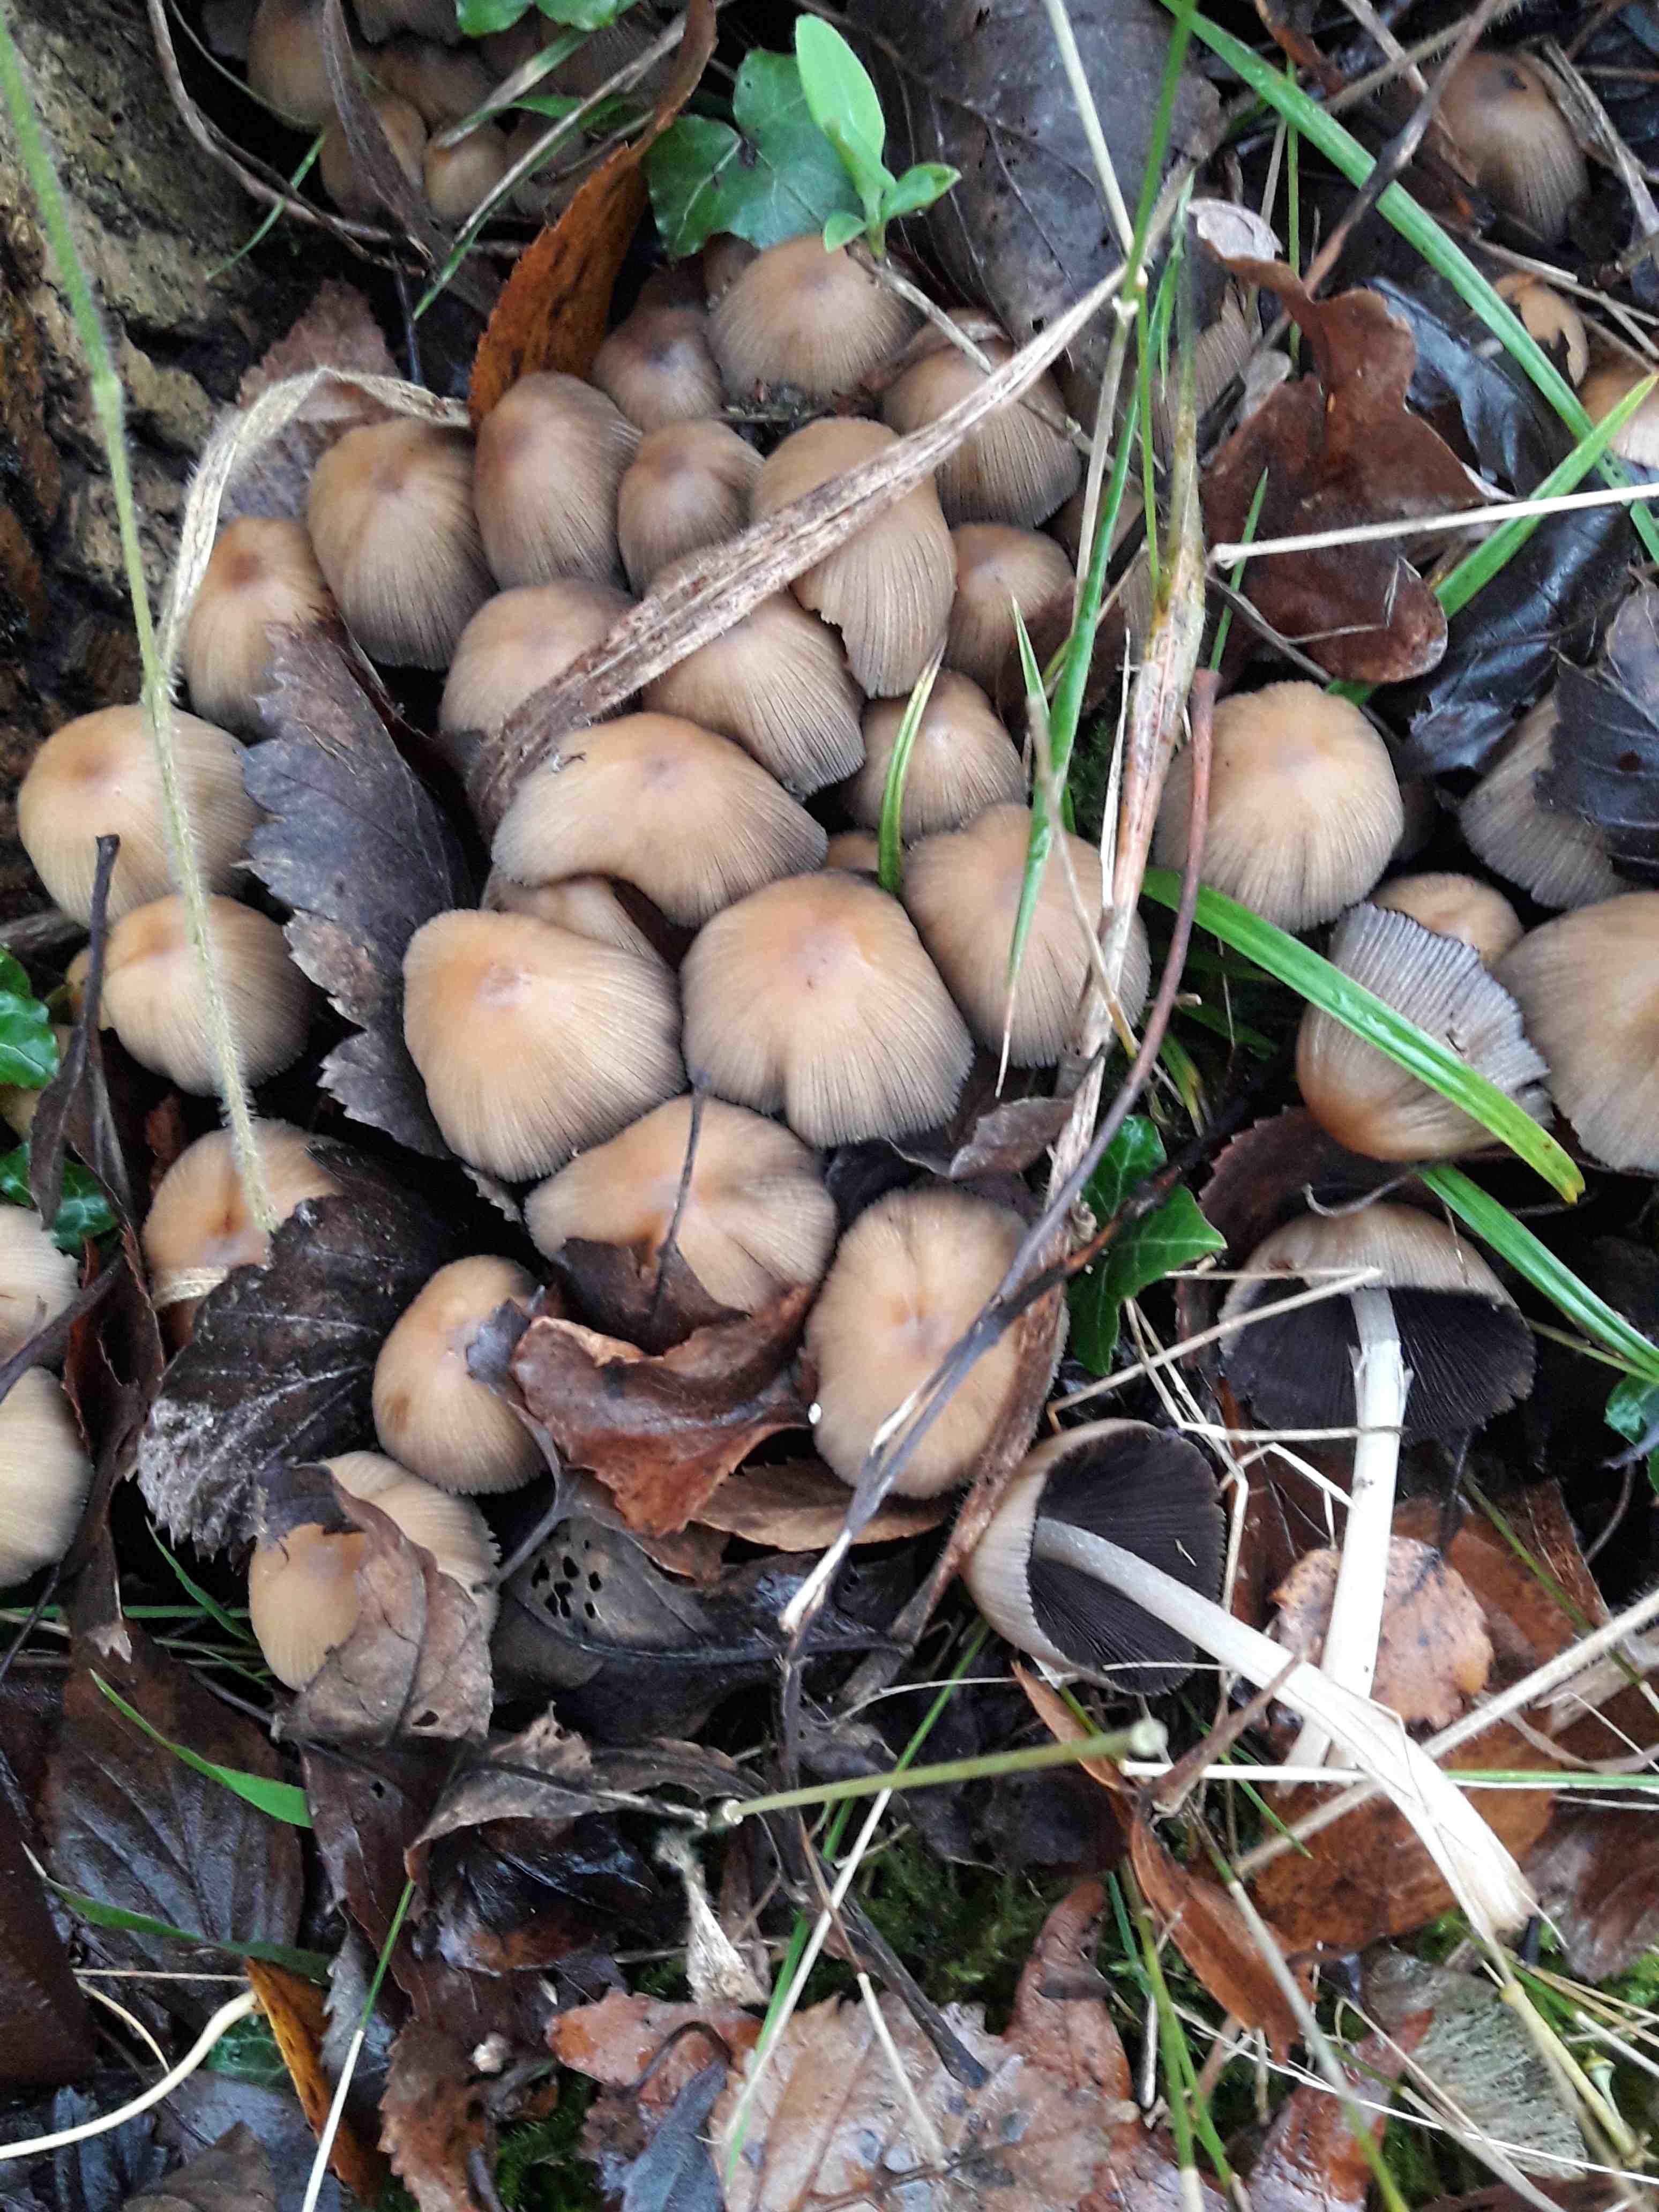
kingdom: Fungi
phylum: Basidiomycota
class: Agaricomycetes
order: Agaricales
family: Psathyrellaceae
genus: Coprinellus
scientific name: Coprinellus micaceus
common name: glimmer-blækhat
